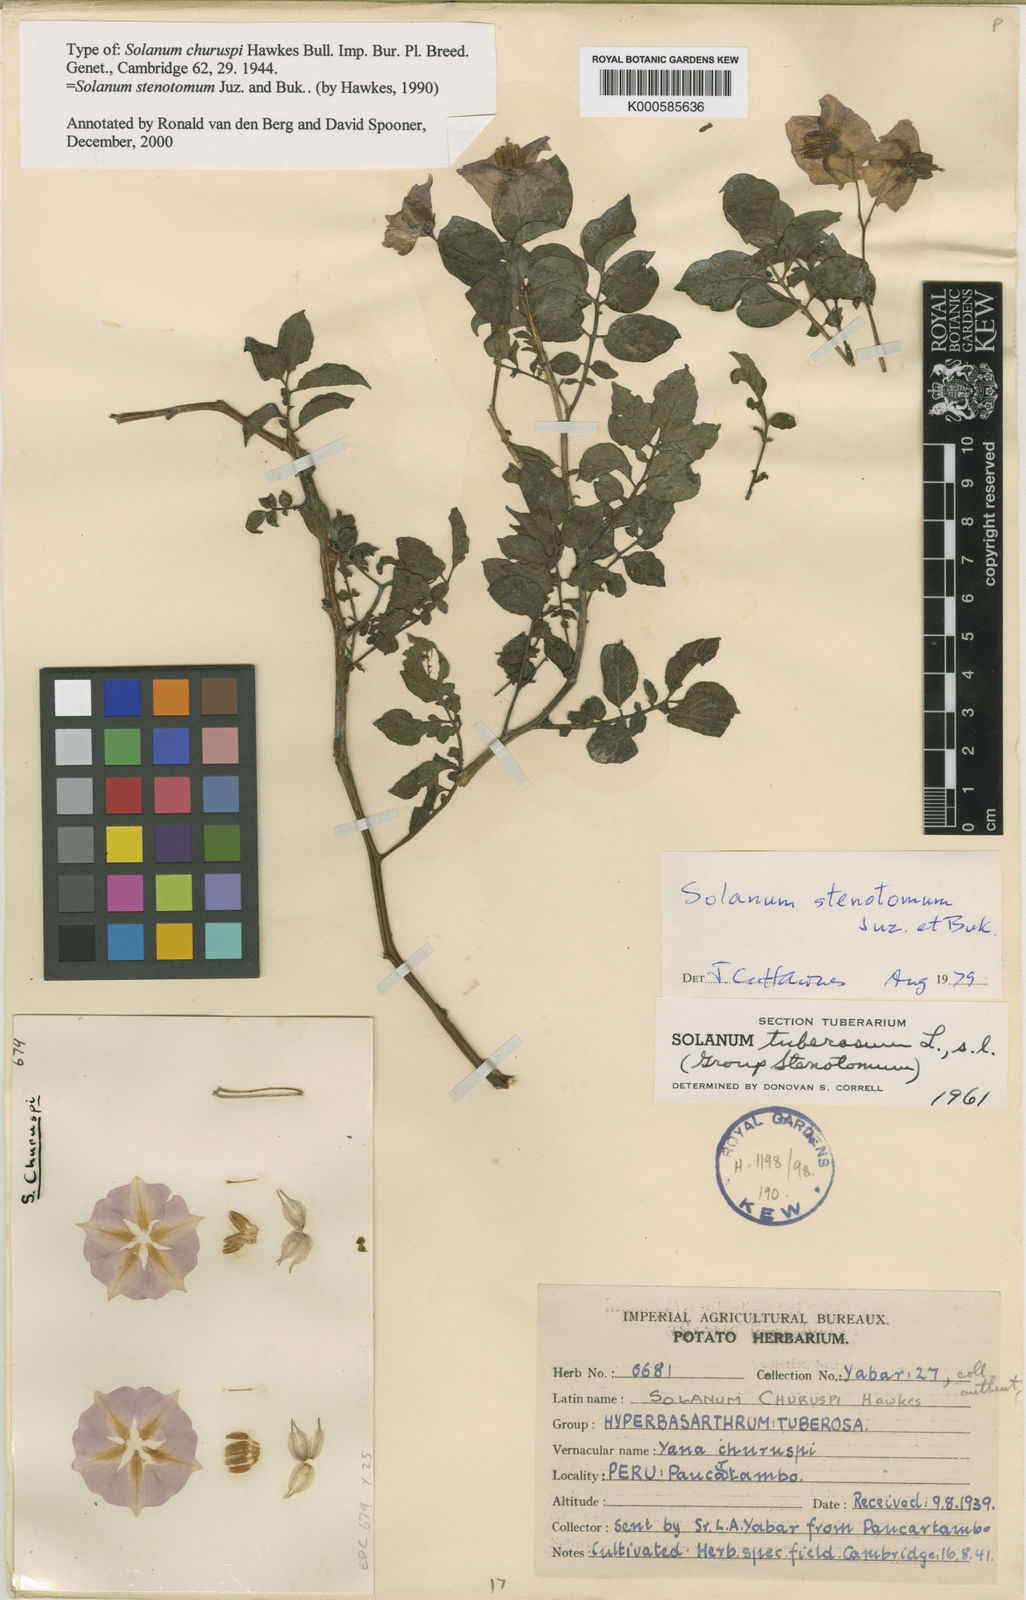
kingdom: Plantae
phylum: Tracheophyta
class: Magnoliopsida
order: Solanales
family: Solanaceae
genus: Solanum
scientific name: Solanum tuberosum
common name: Potato
